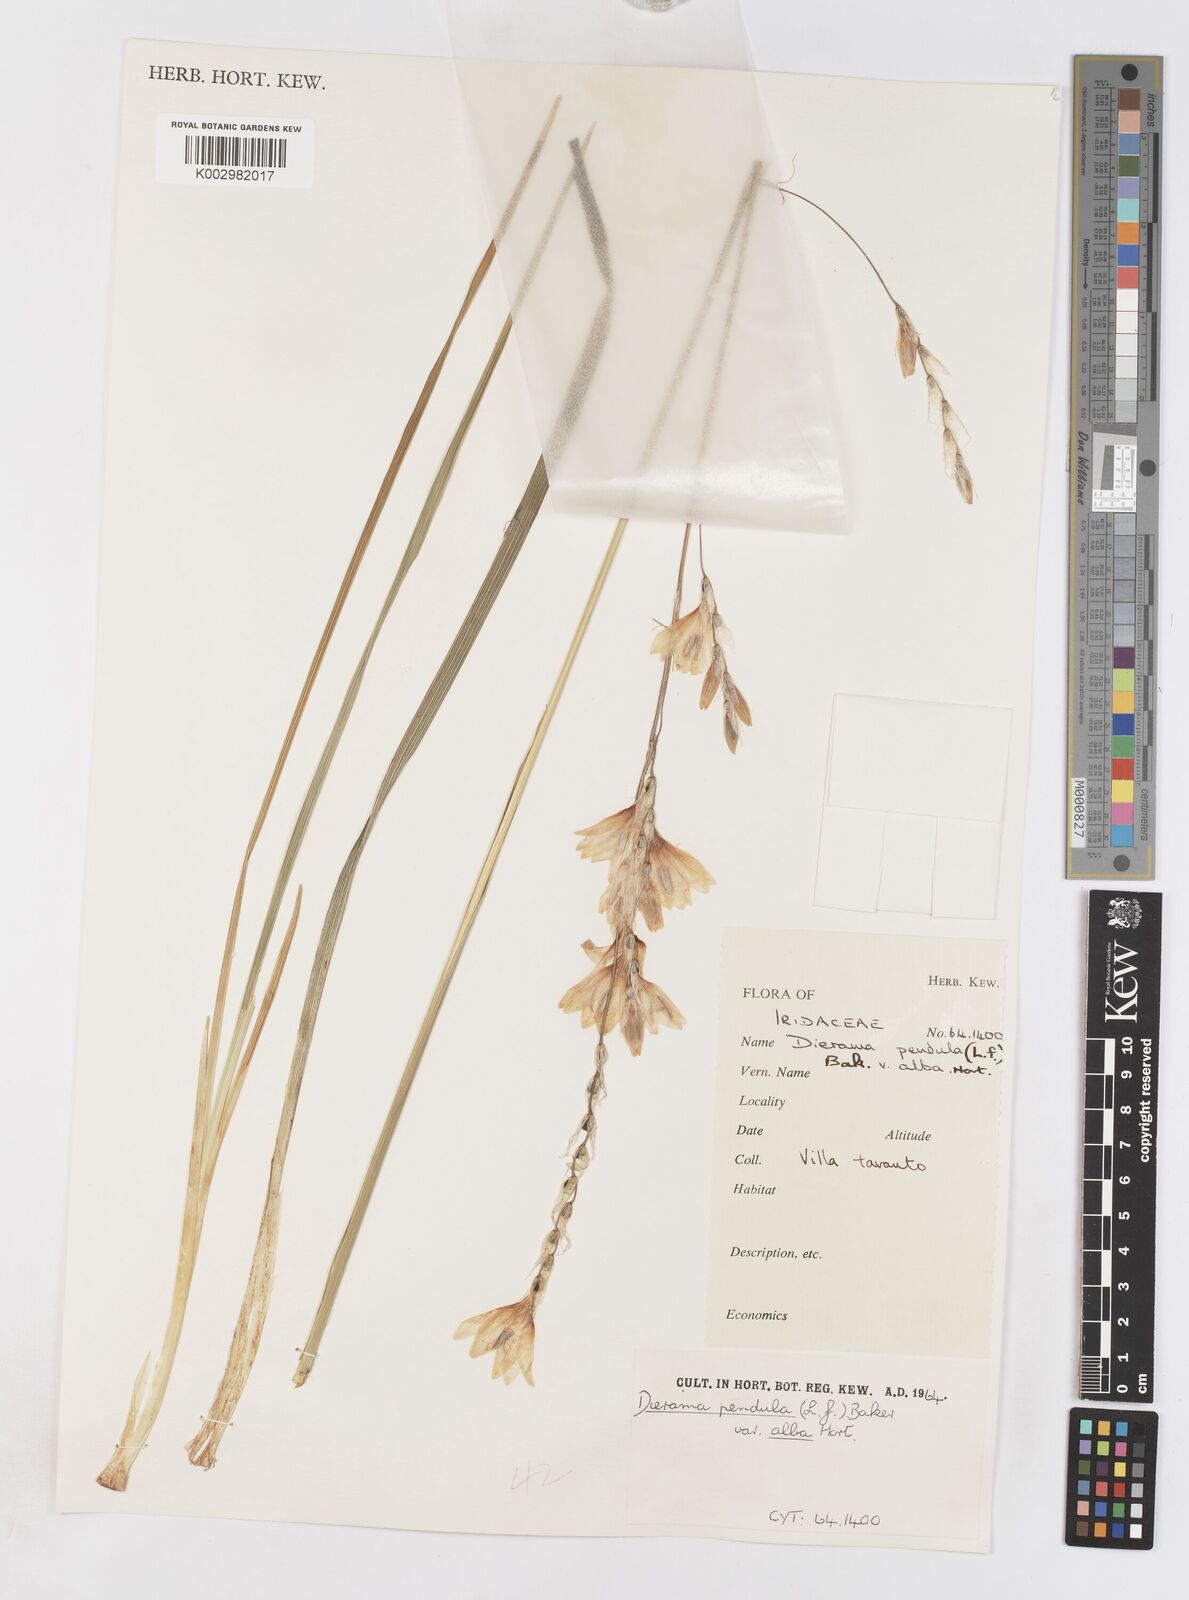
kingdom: Plantae
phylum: Tracheophyta
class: Liliopsida
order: Asparagales
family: Iridaceae
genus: Dierama
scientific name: Dierama pendulum
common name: Grassy-bell
